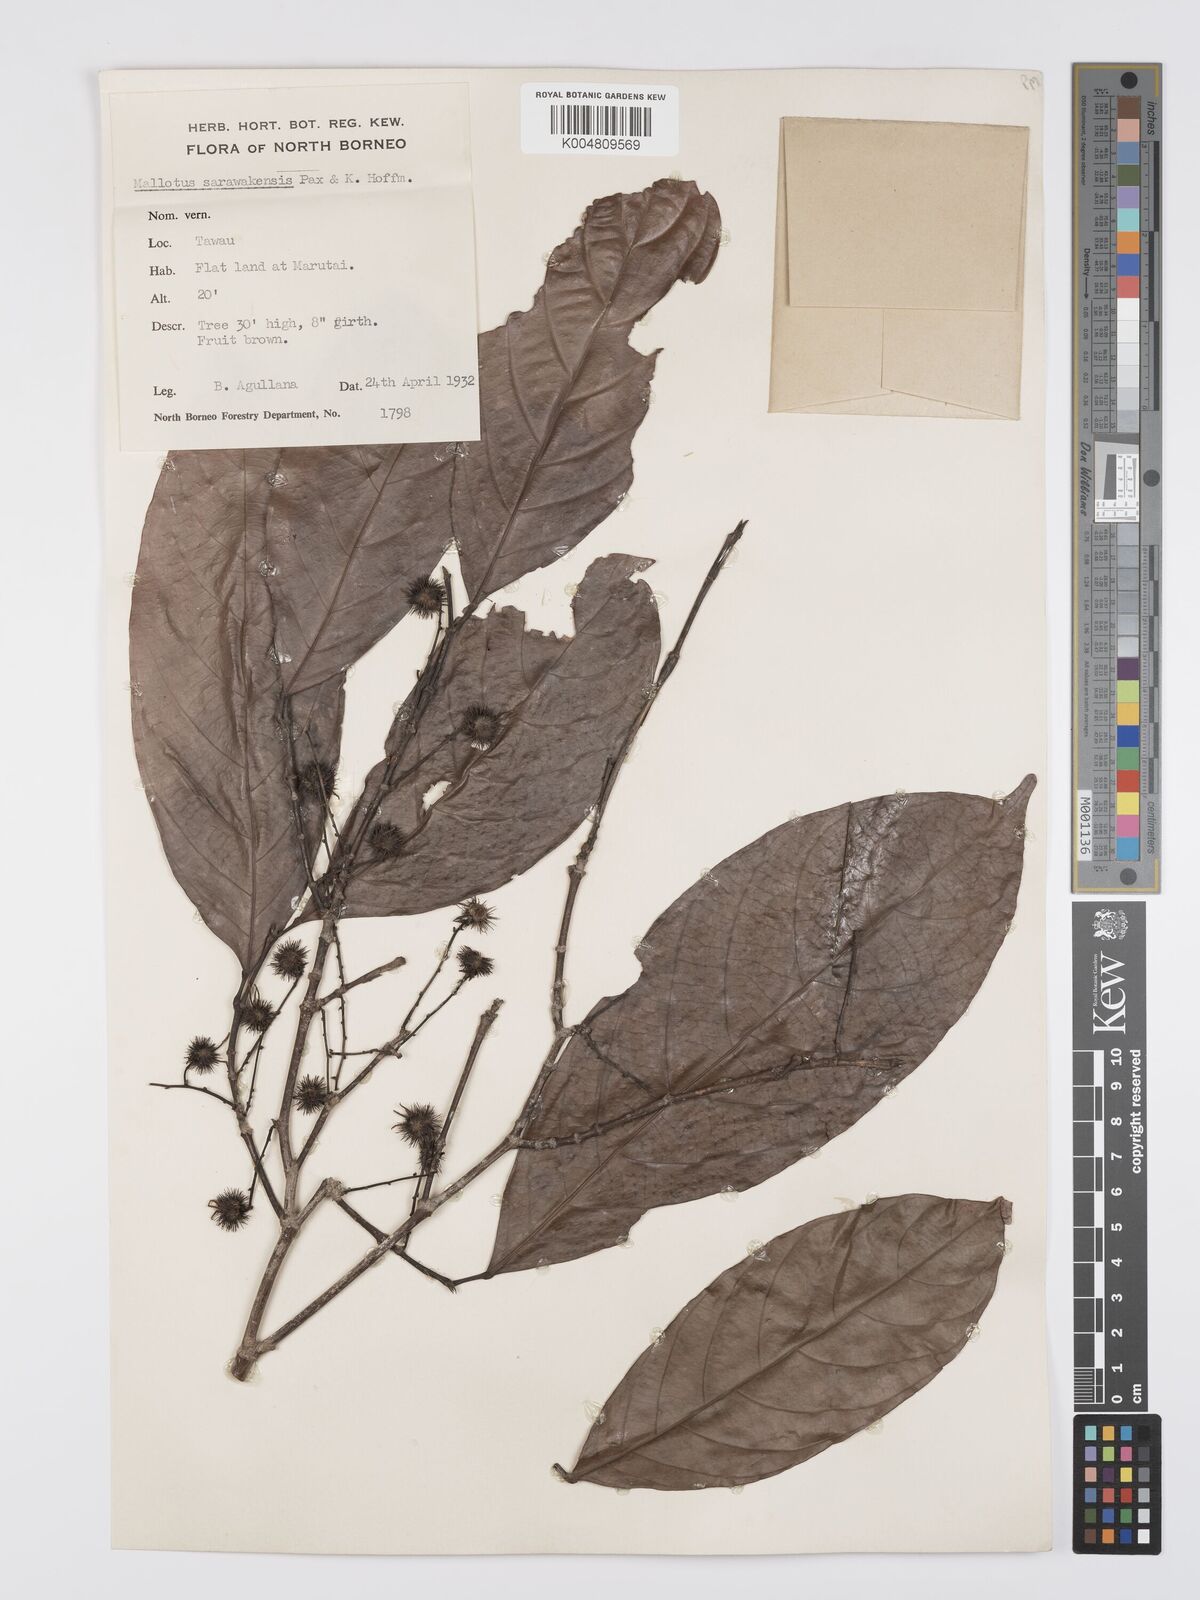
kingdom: Plantae
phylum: Tracheophyta
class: Magnoliopsida
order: Malpighiales
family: Euphorbiaceae
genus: Hancea
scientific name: Hancea penangensis
